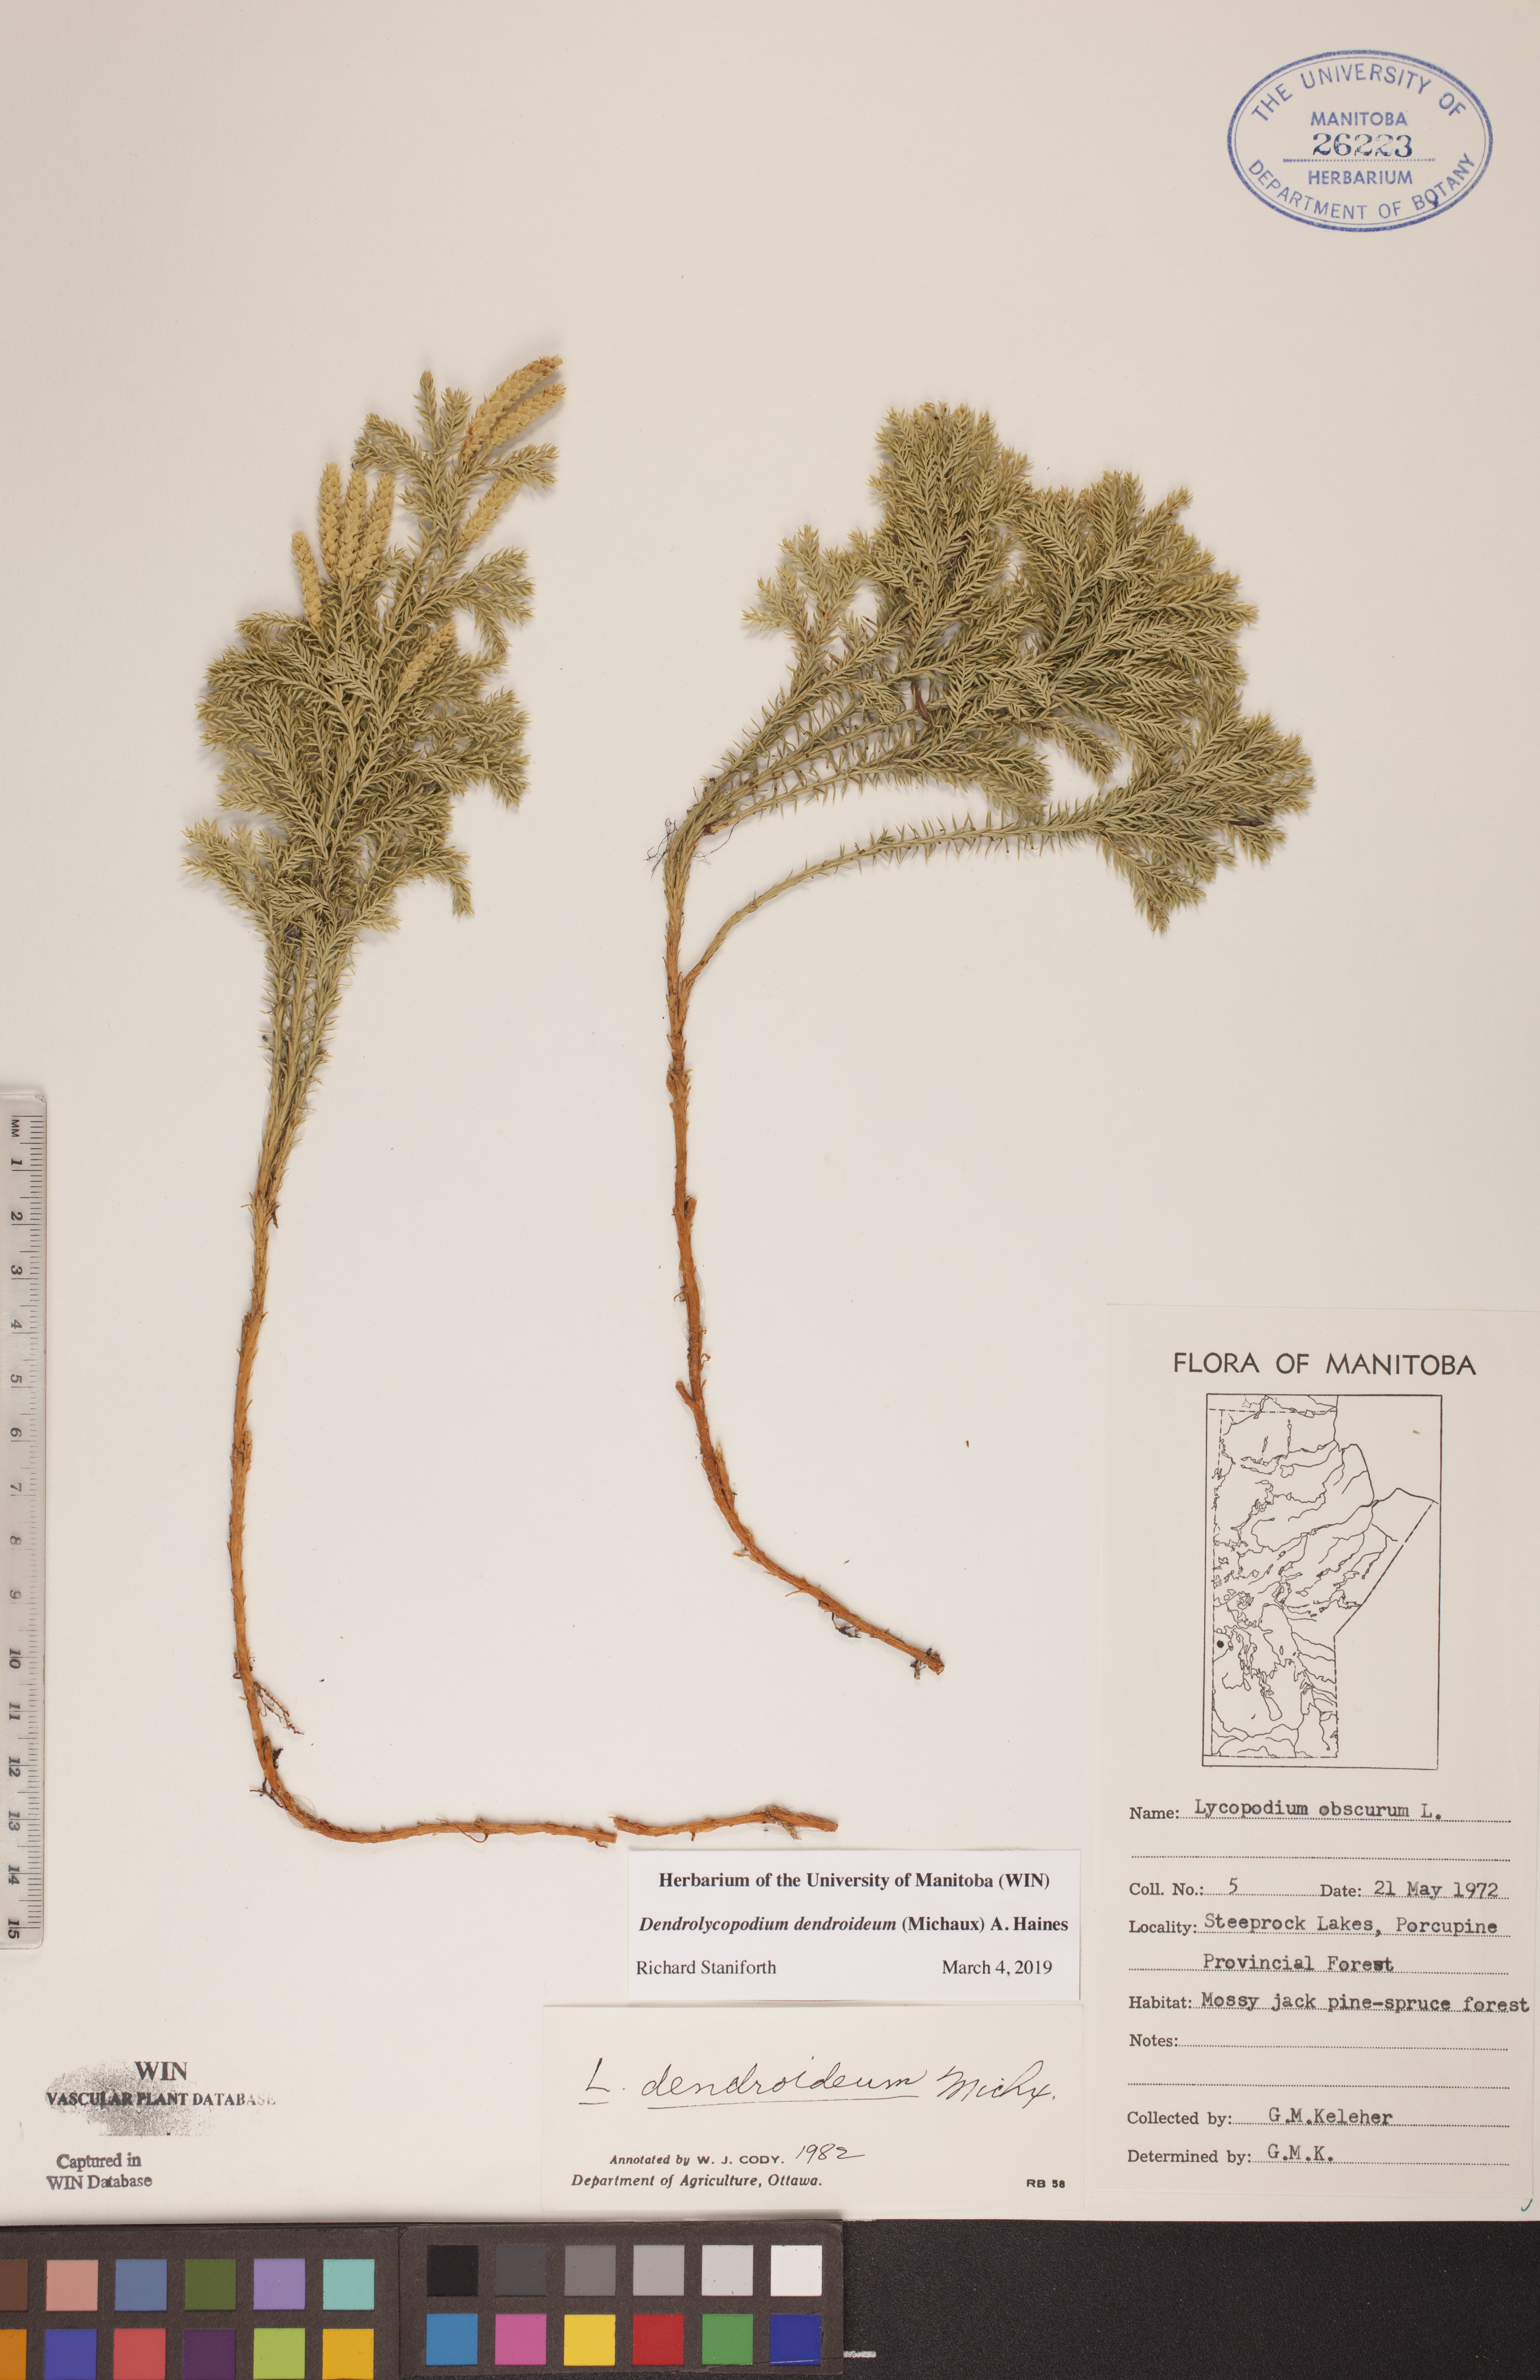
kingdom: Plantae
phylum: Tracheophyta
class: Lycopodiopsida
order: Lycopodiales
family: Lycopodiaceae
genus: Dendrolycopodium
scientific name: Dendrolycopodium dendroideum
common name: Northern tree-clubmoss
